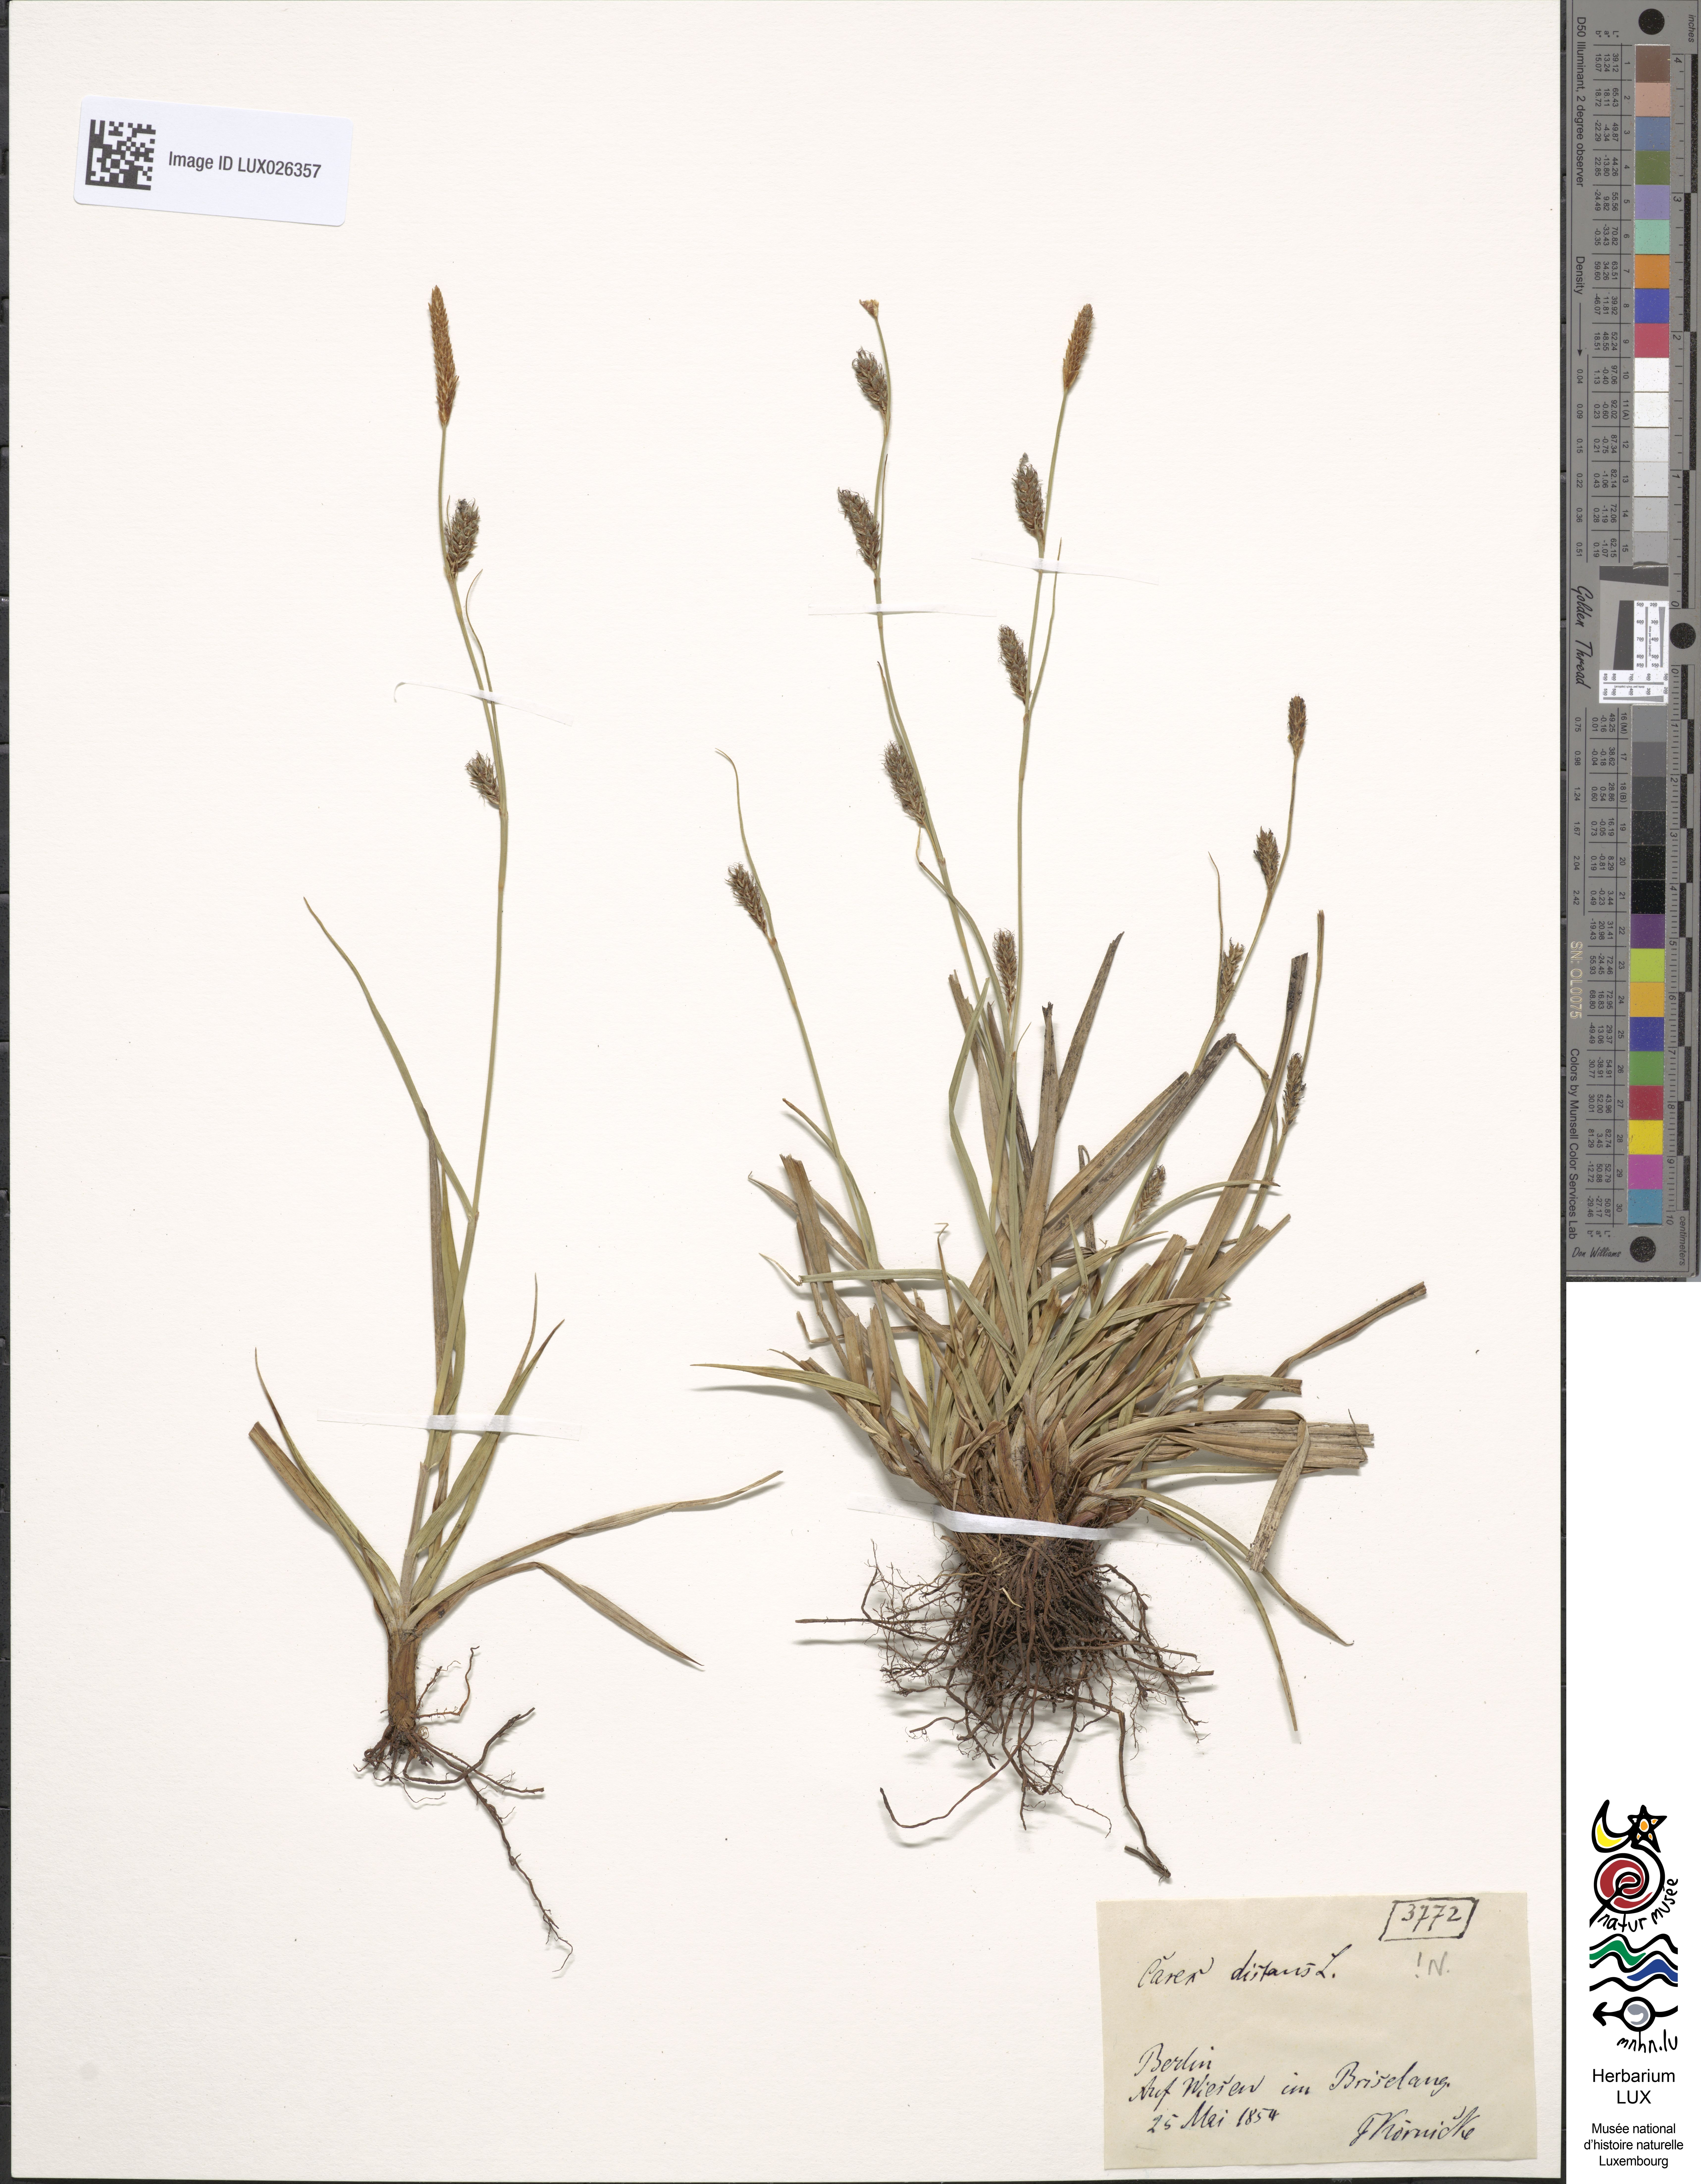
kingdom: Plantae
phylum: Tracheophyta
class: Liliopsida
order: Poales
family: Cyperaceae
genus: Carex
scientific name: Carex distans
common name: Distant sedge
